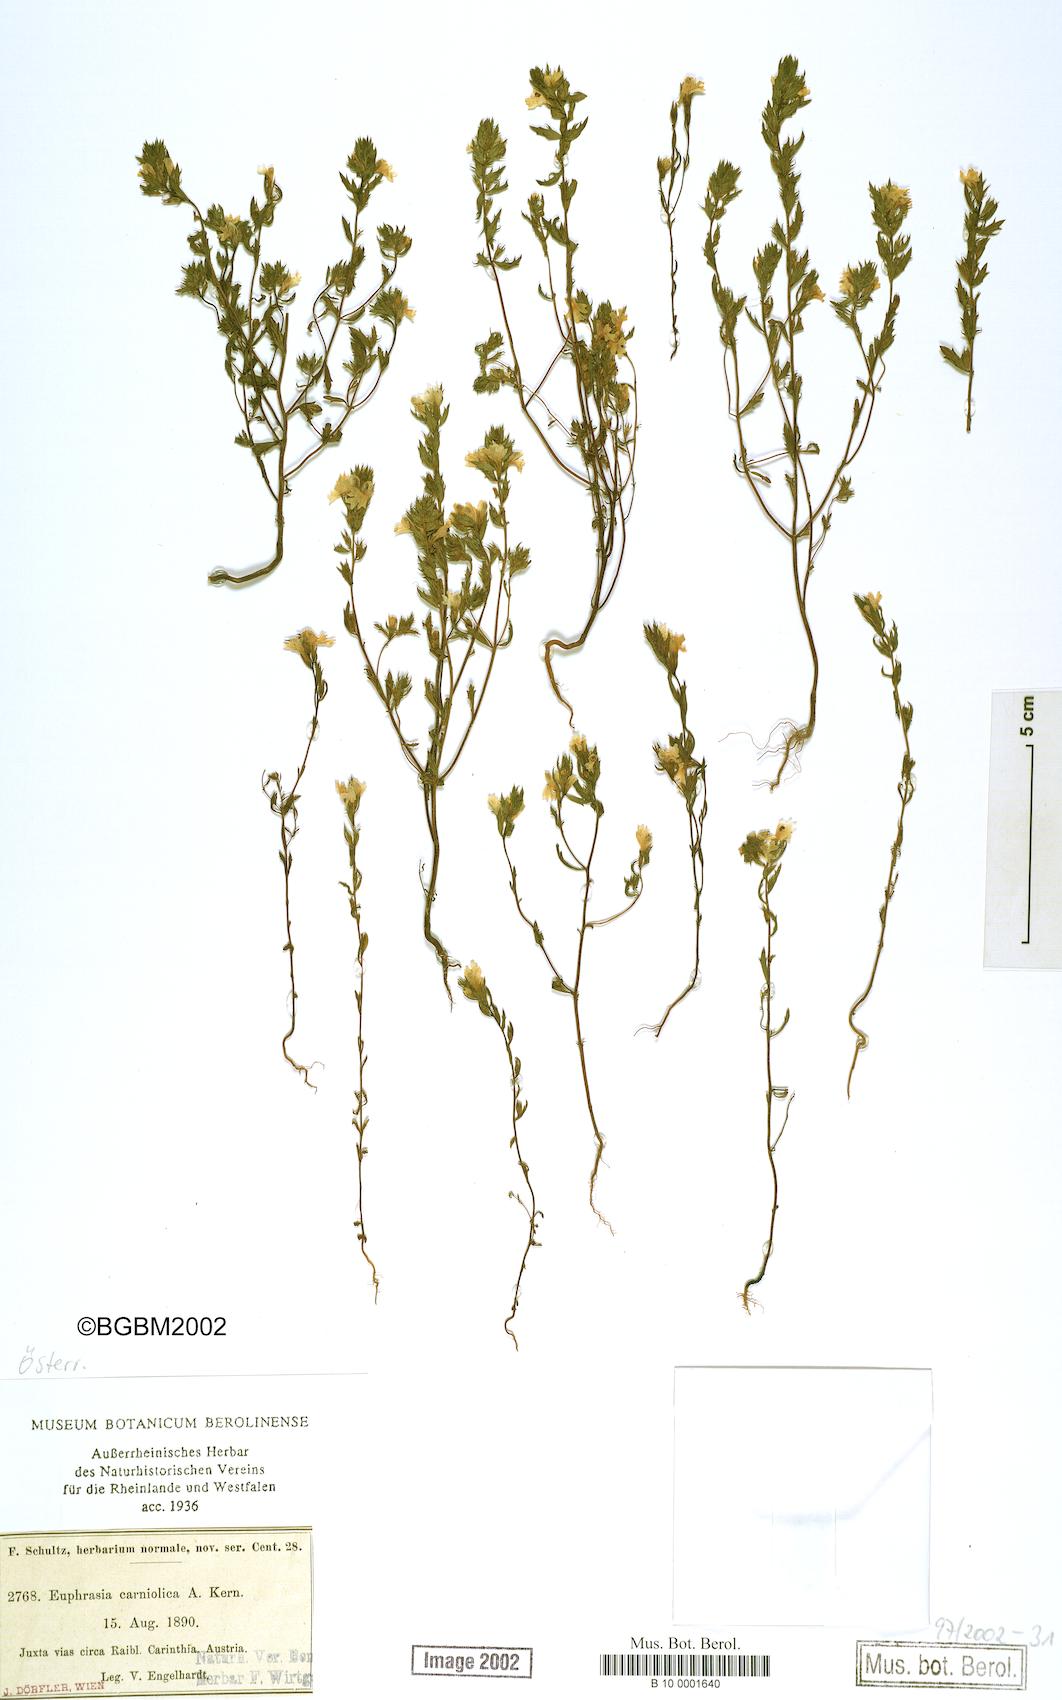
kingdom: Plantae
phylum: Tracheophyta
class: Magnoliopsida
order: Lamiales
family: Orobanchaceae
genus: Euphrasia
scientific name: Euphrasia officinalis
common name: Eyebright
